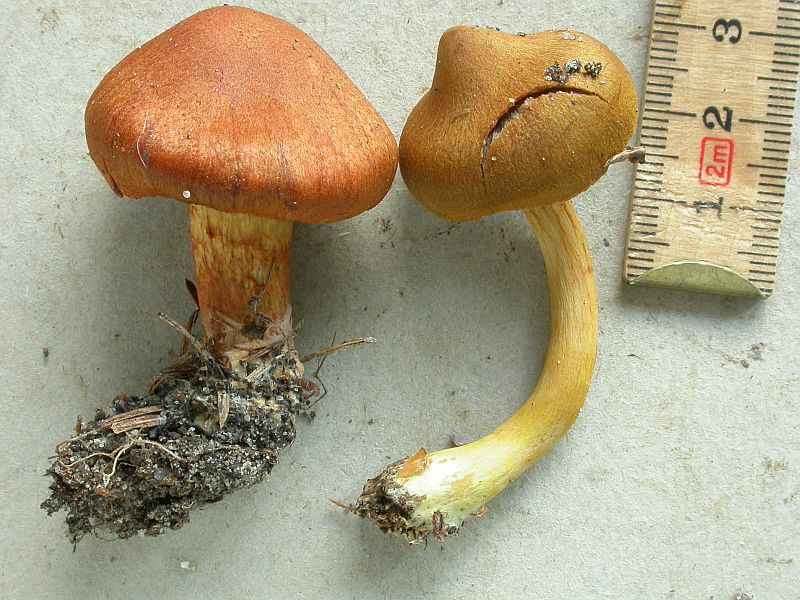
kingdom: Fungi
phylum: Basidiomycota
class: Agaricomycetes
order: Agaricales
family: Cortinariaceae
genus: Cortinarius
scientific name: Cortinarius purpureus
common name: brunrød slørhat
